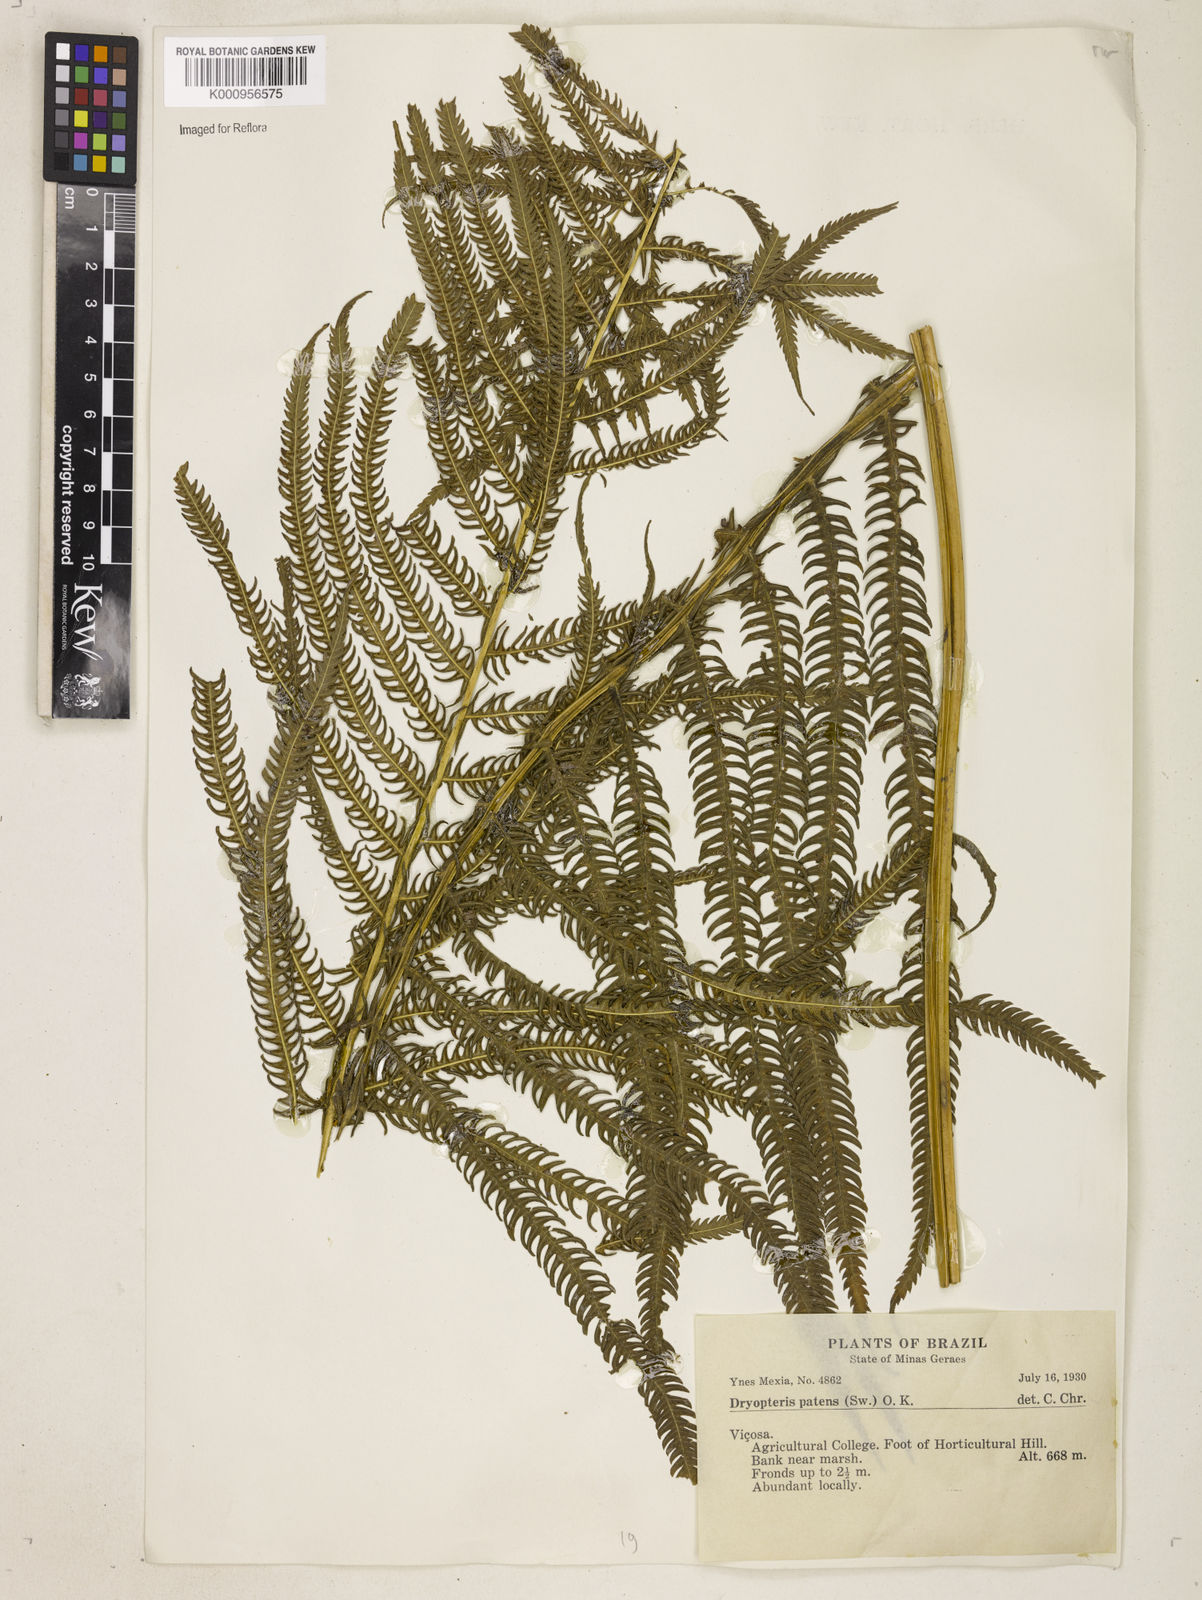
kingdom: Plantae
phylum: Tracheophyta
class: Polypodiopsida
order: Polypodiales
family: Thelypteridaceae
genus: Pelazoneuron
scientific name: Pelazoneuron patens
